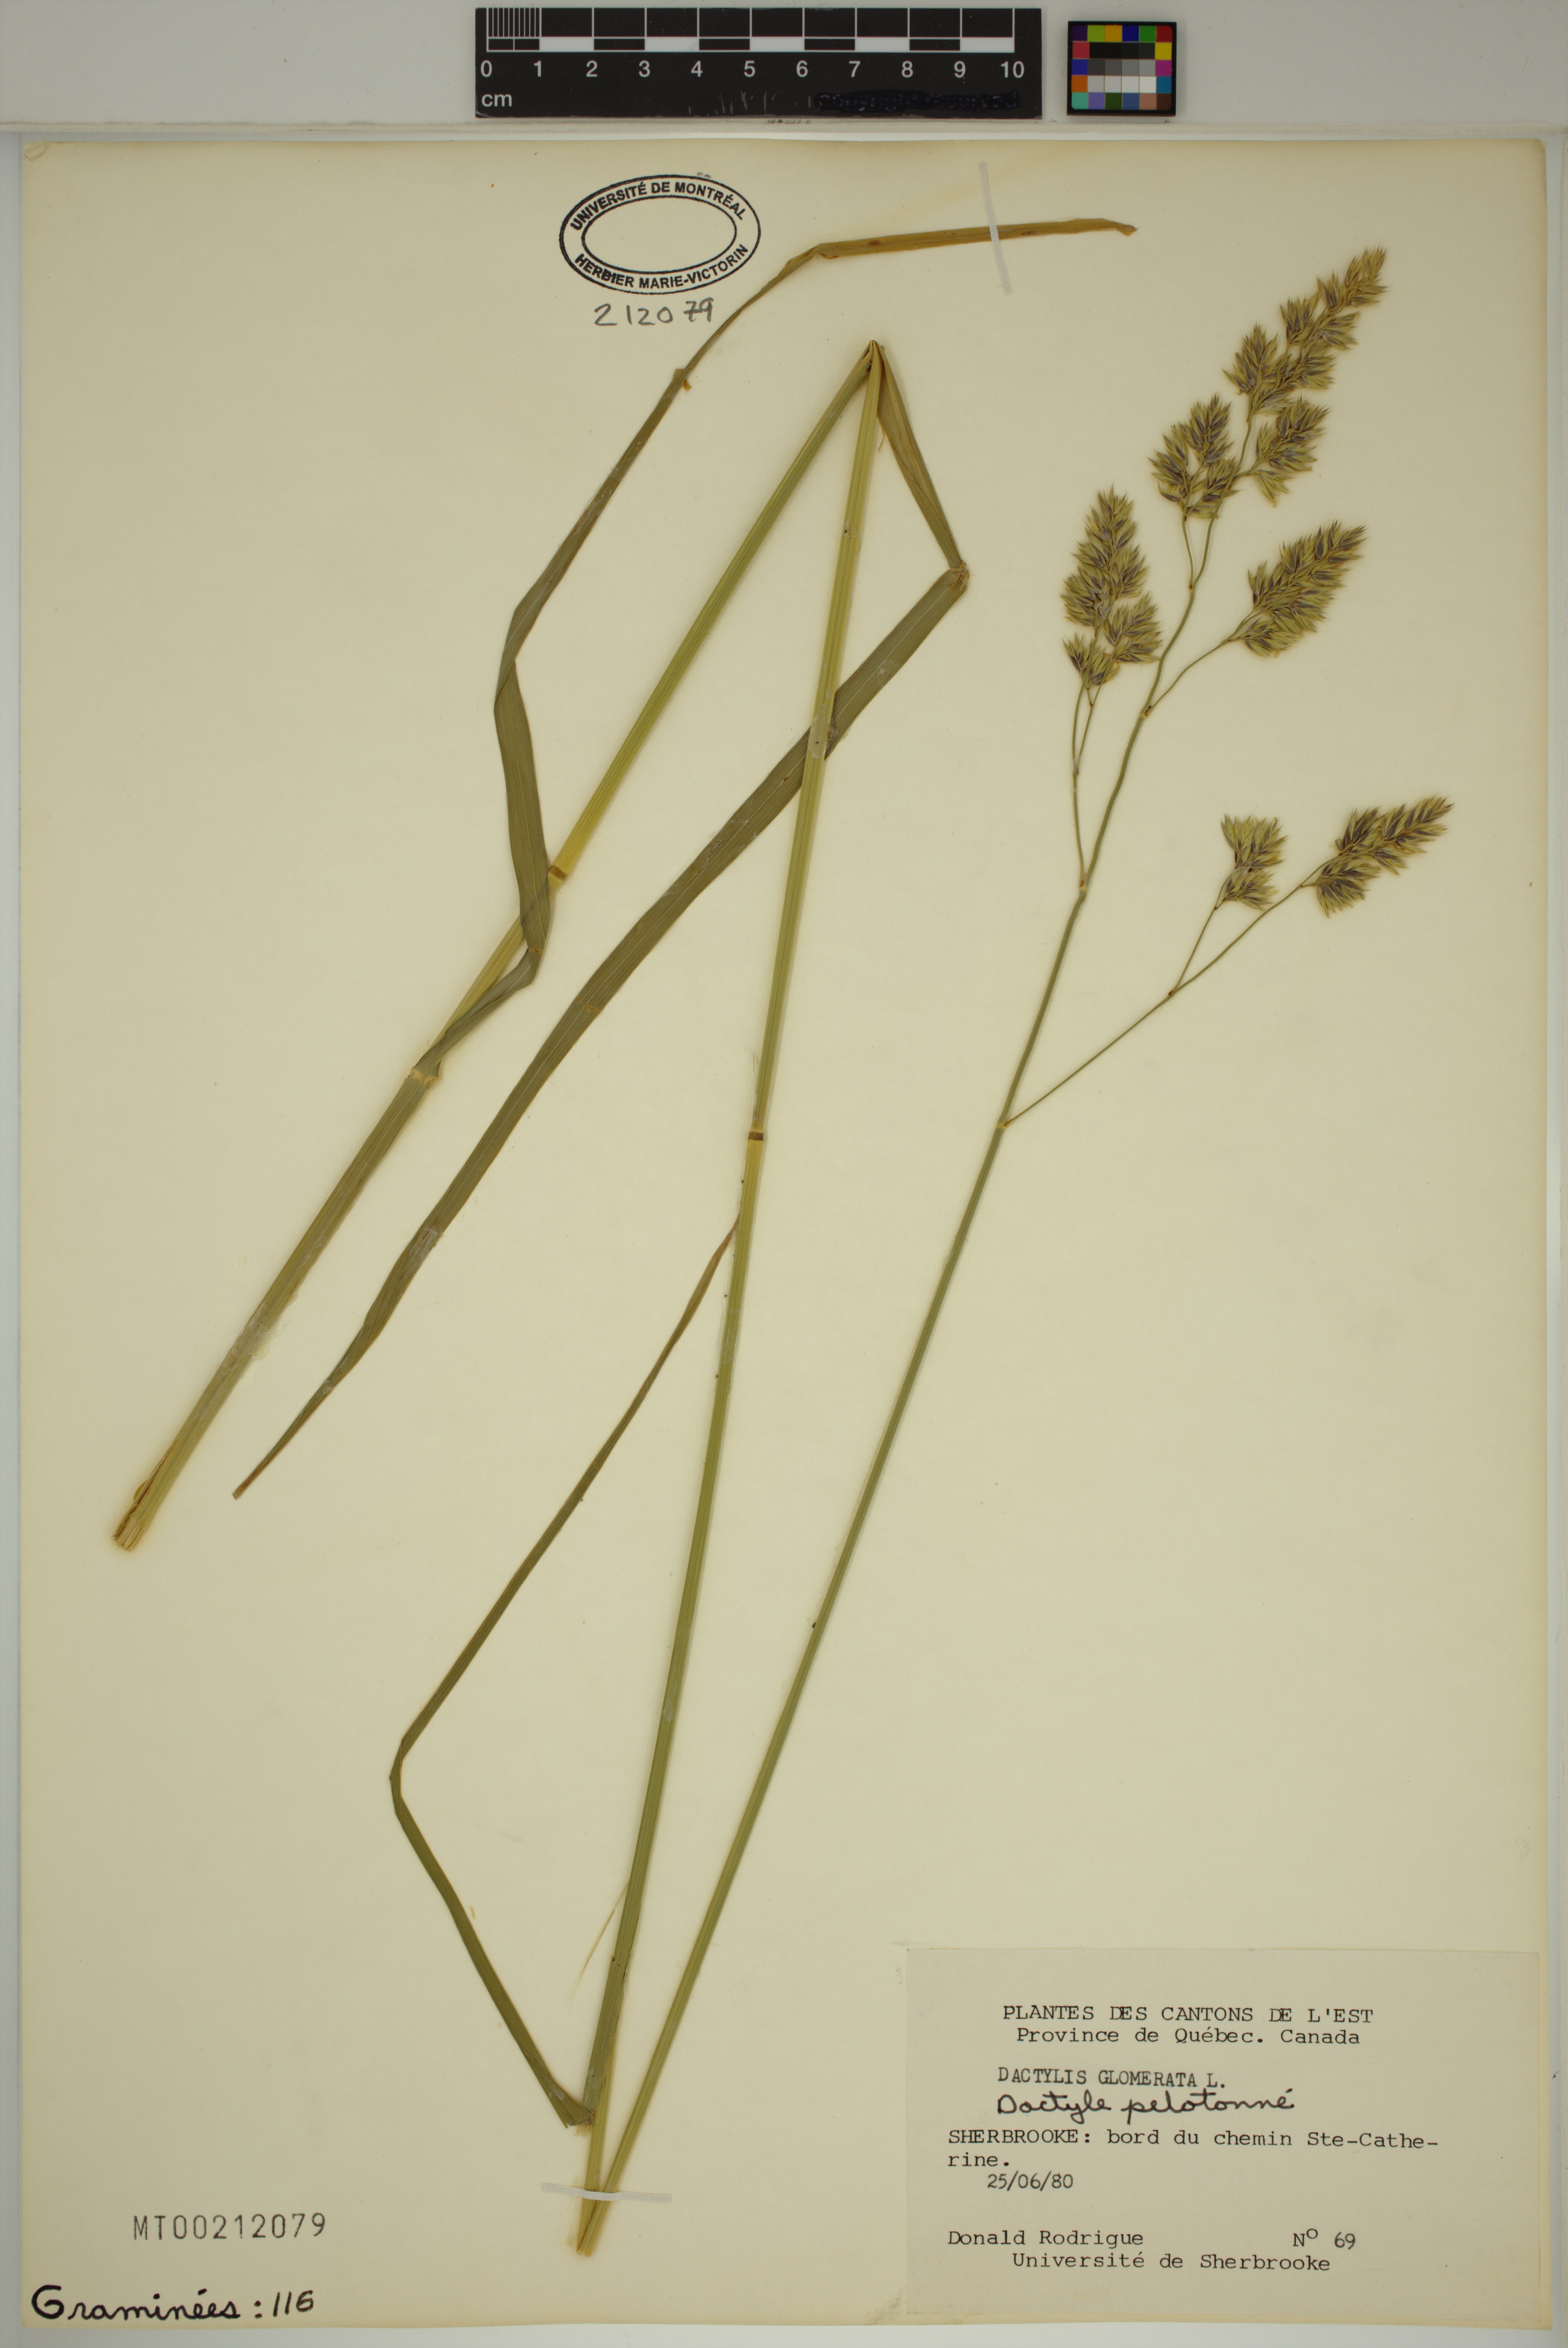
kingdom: Plantae
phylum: Tracheophyta
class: Liliopsida
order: Poales
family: Poaceae
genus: Dactylis
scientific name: Dactylis glomerata
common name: Orchardgrass
